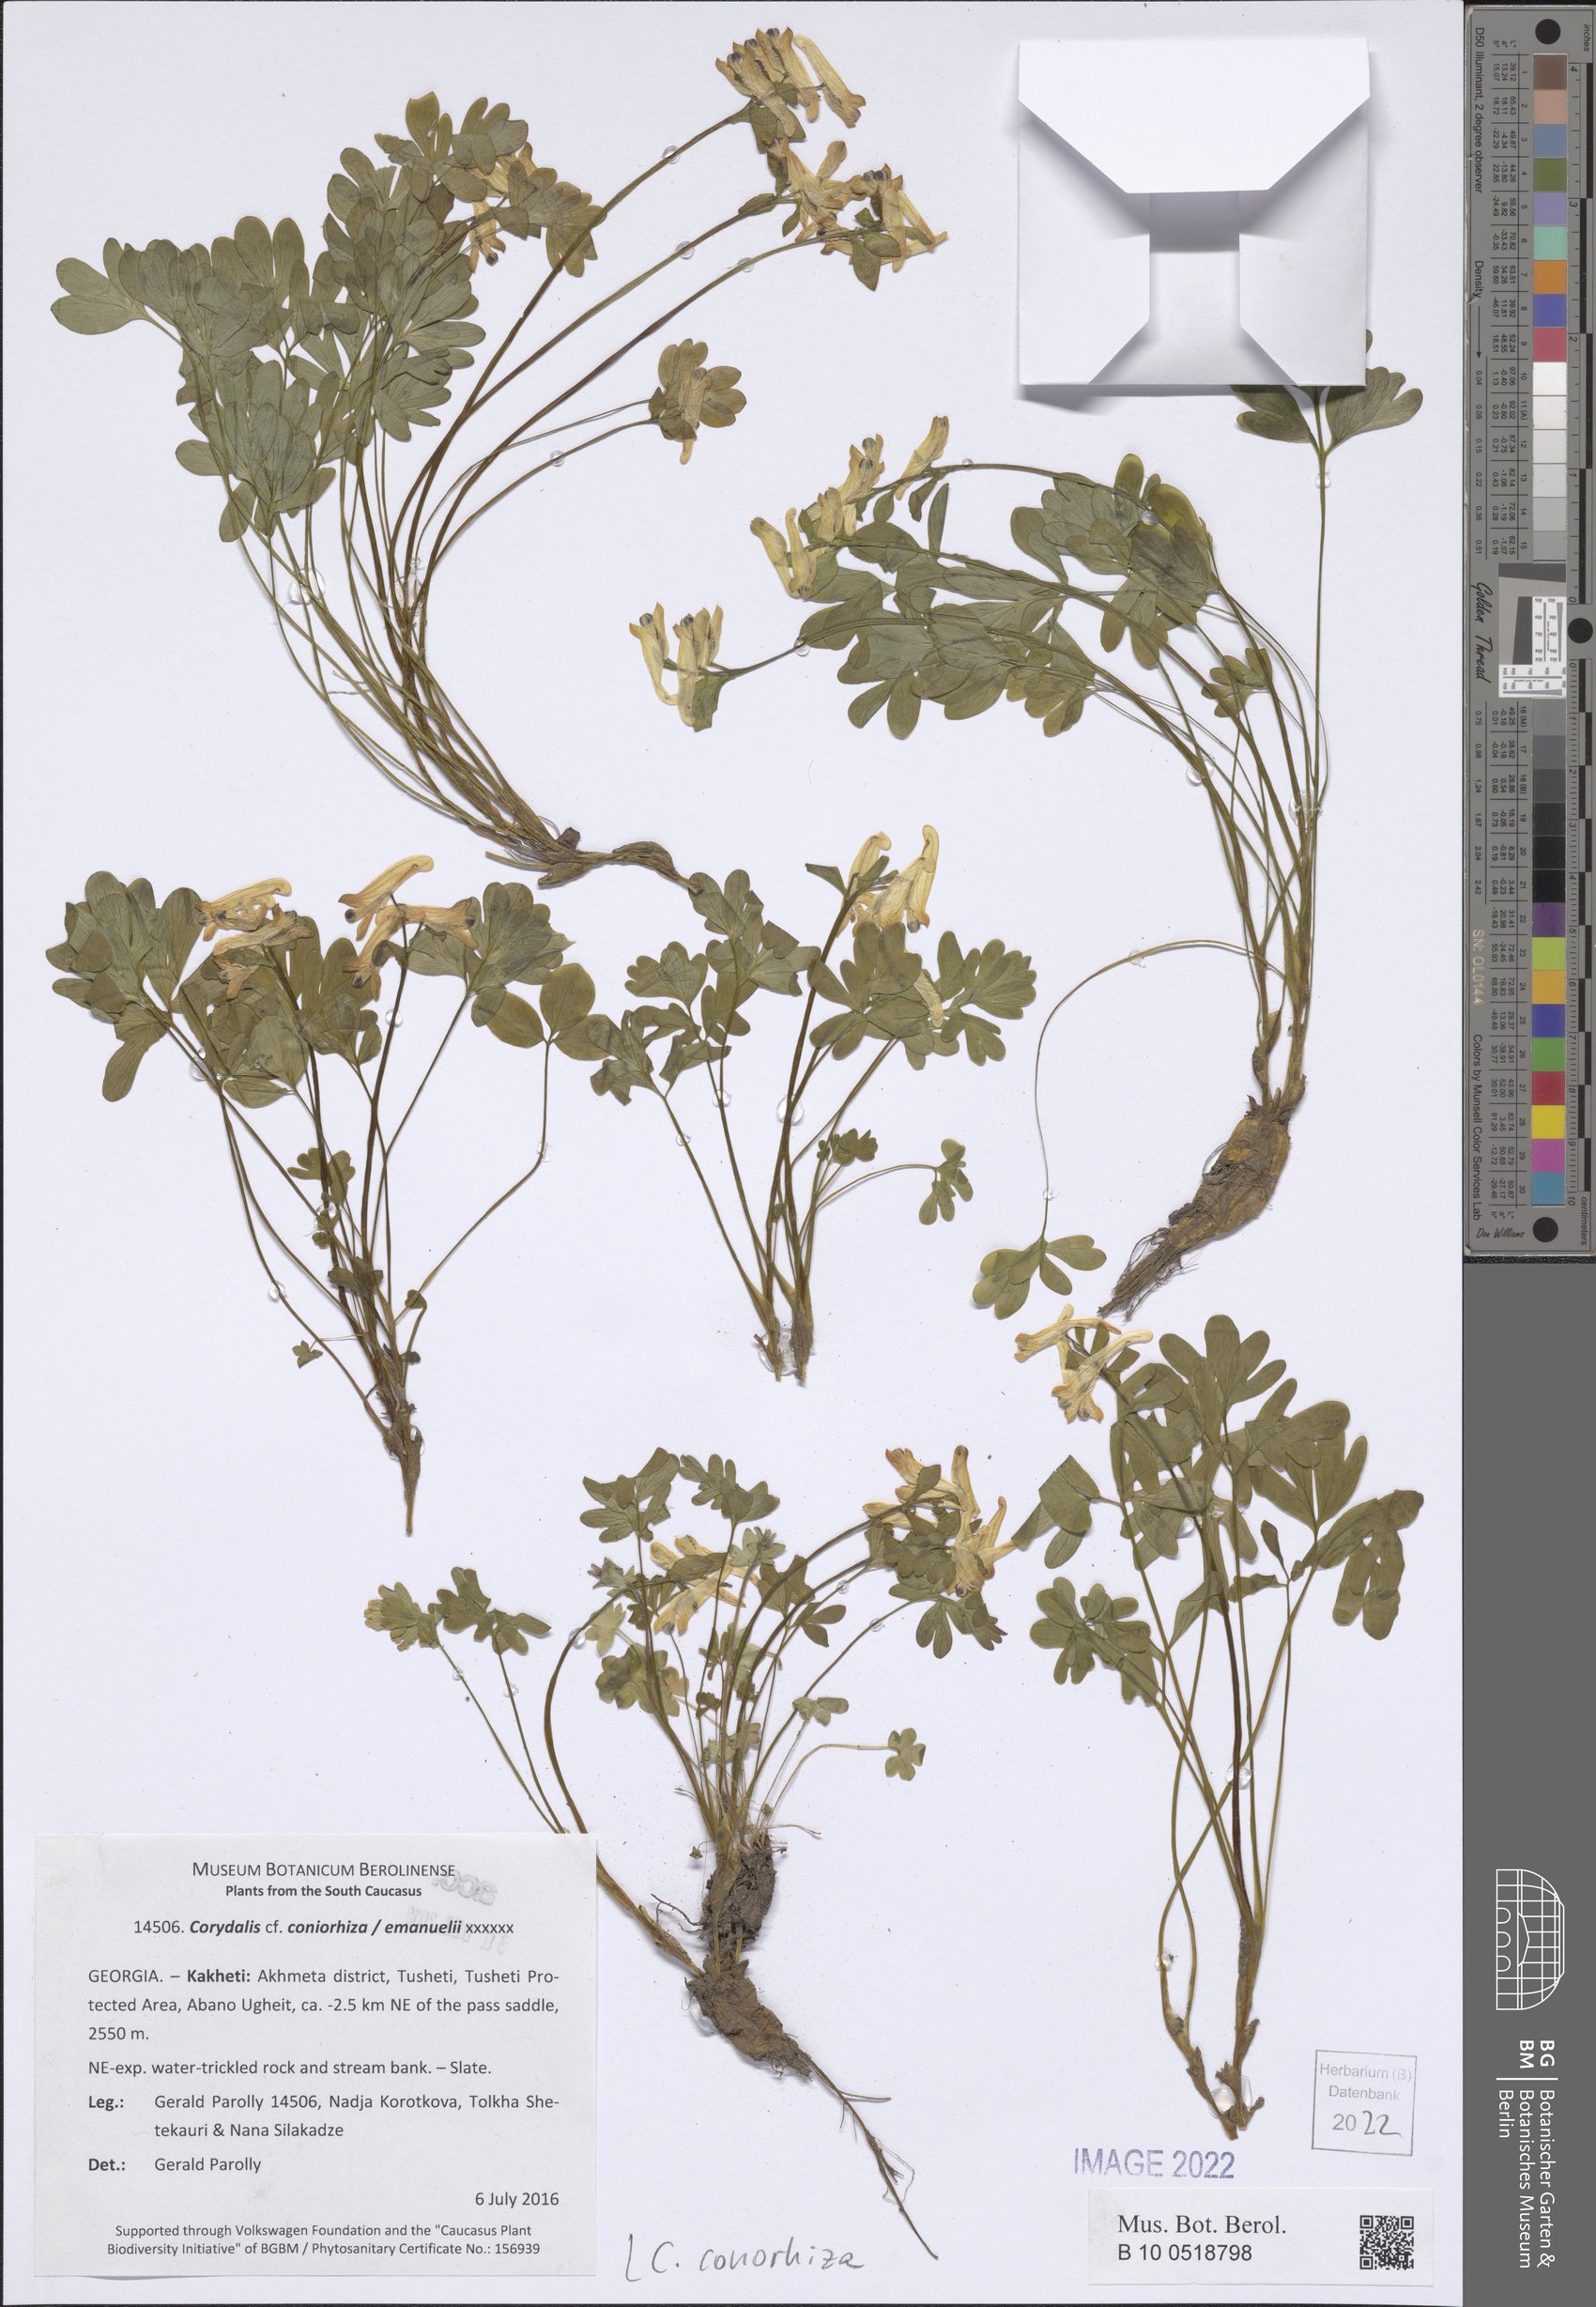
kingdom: Plantae
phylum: Tracheophyta
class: Magnoliopsida
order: Ranunculales
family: Papaveraceae
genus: Corydalis
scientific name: Corydalis conorhiza
